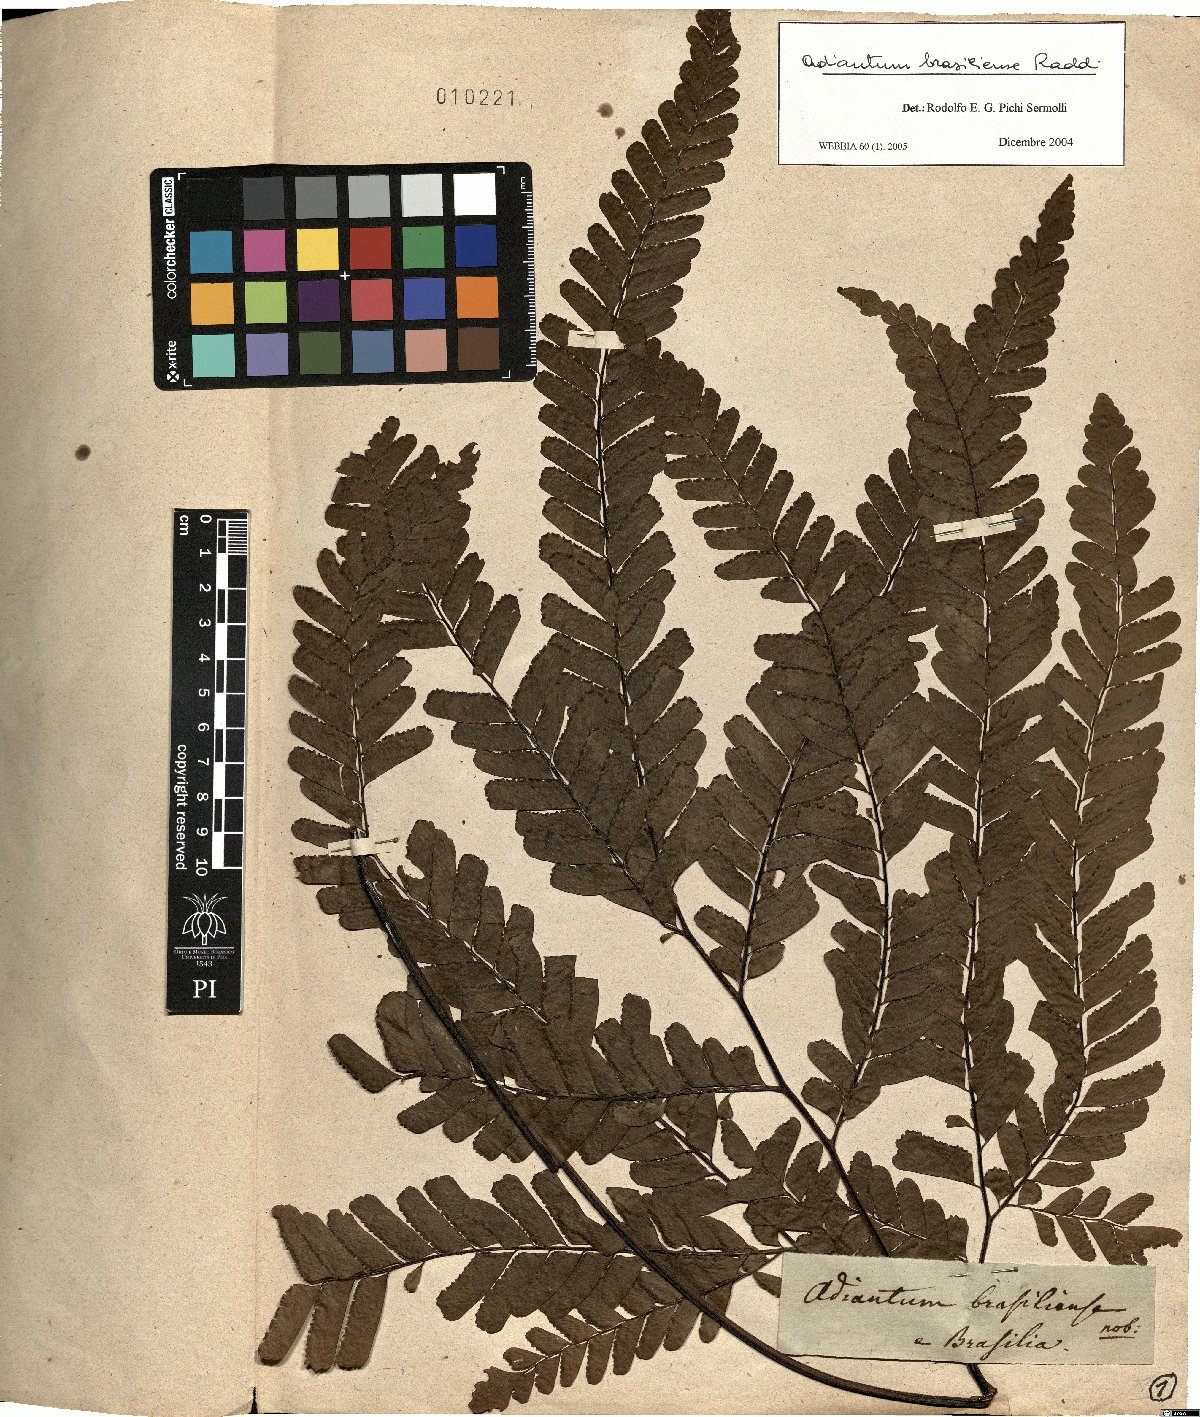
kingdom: Plantae
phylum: Tracheophyta
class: Polypodiopsida
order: Polypodiales
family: Pteridaceae
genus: Adiantum
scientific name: Adiantum abscissum
